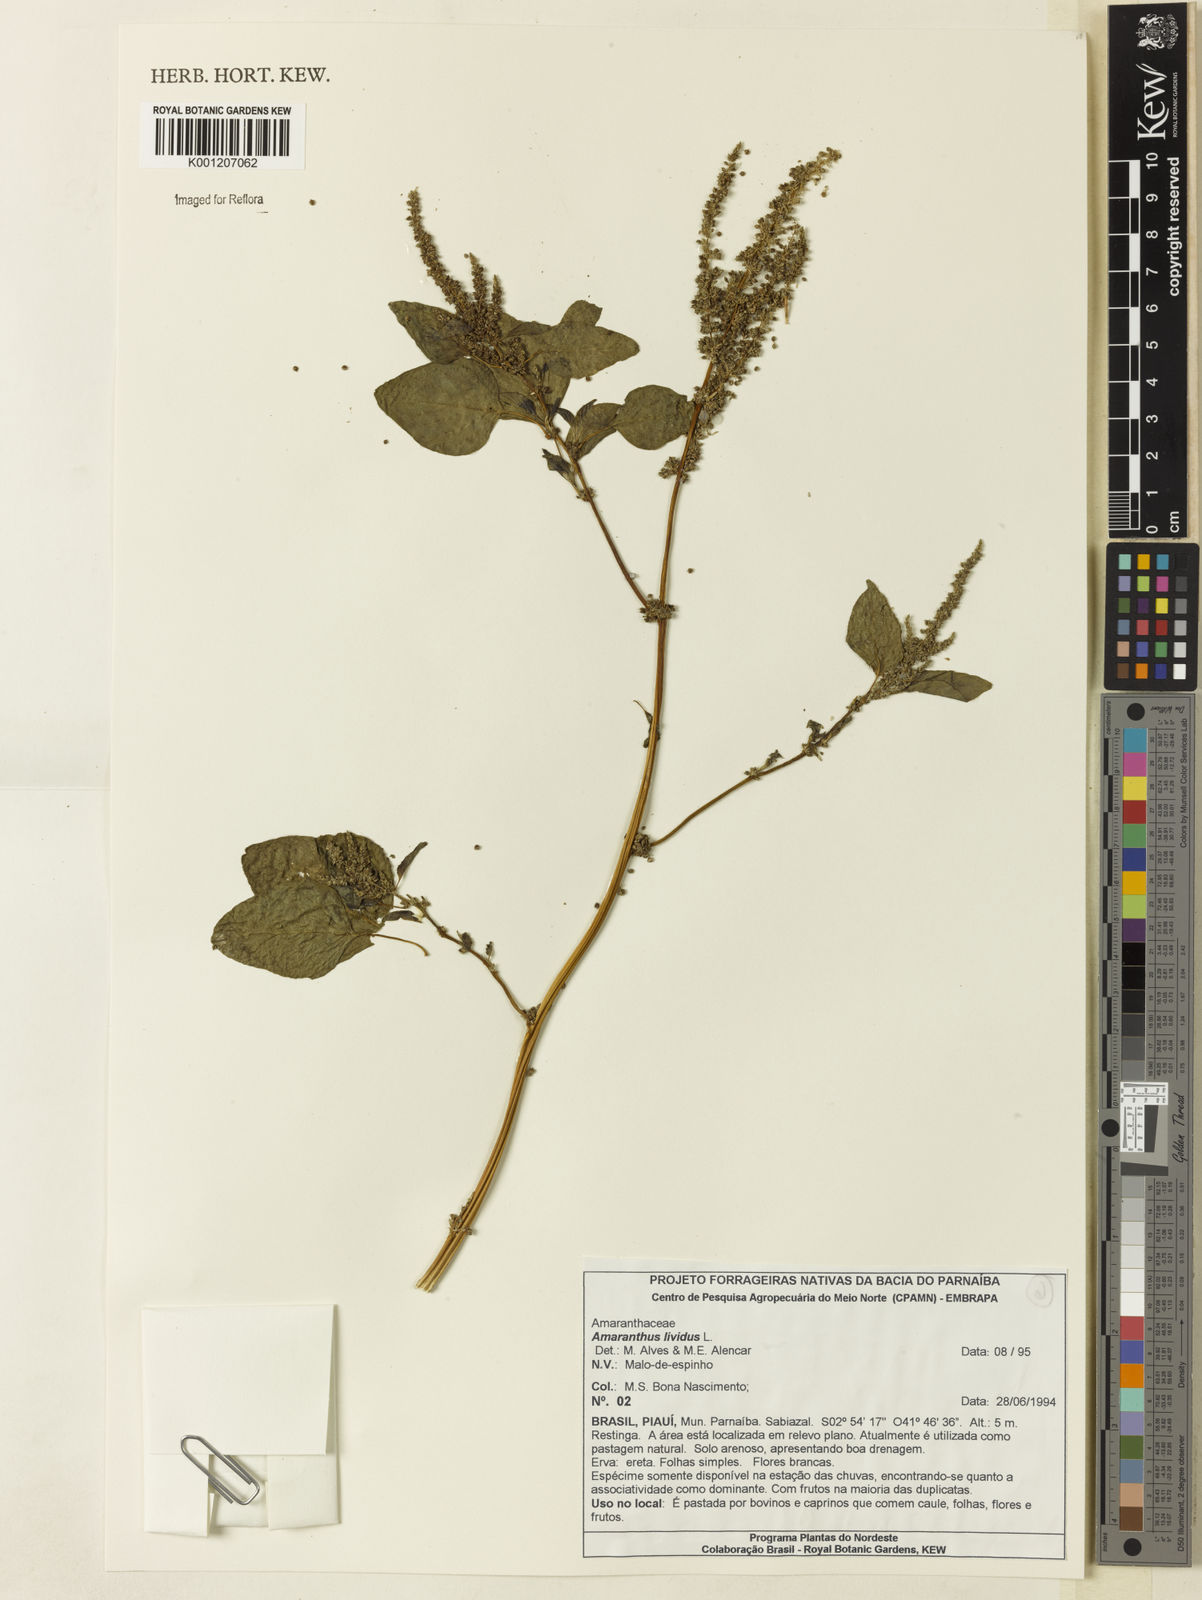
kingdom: Plantae
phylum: Tracheophyta
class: Magnoliopsida
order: Caryophyllales
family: Amaranthaceae
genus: Amaranthus
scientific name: Amaranthus blitum
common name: Purple amaranth
